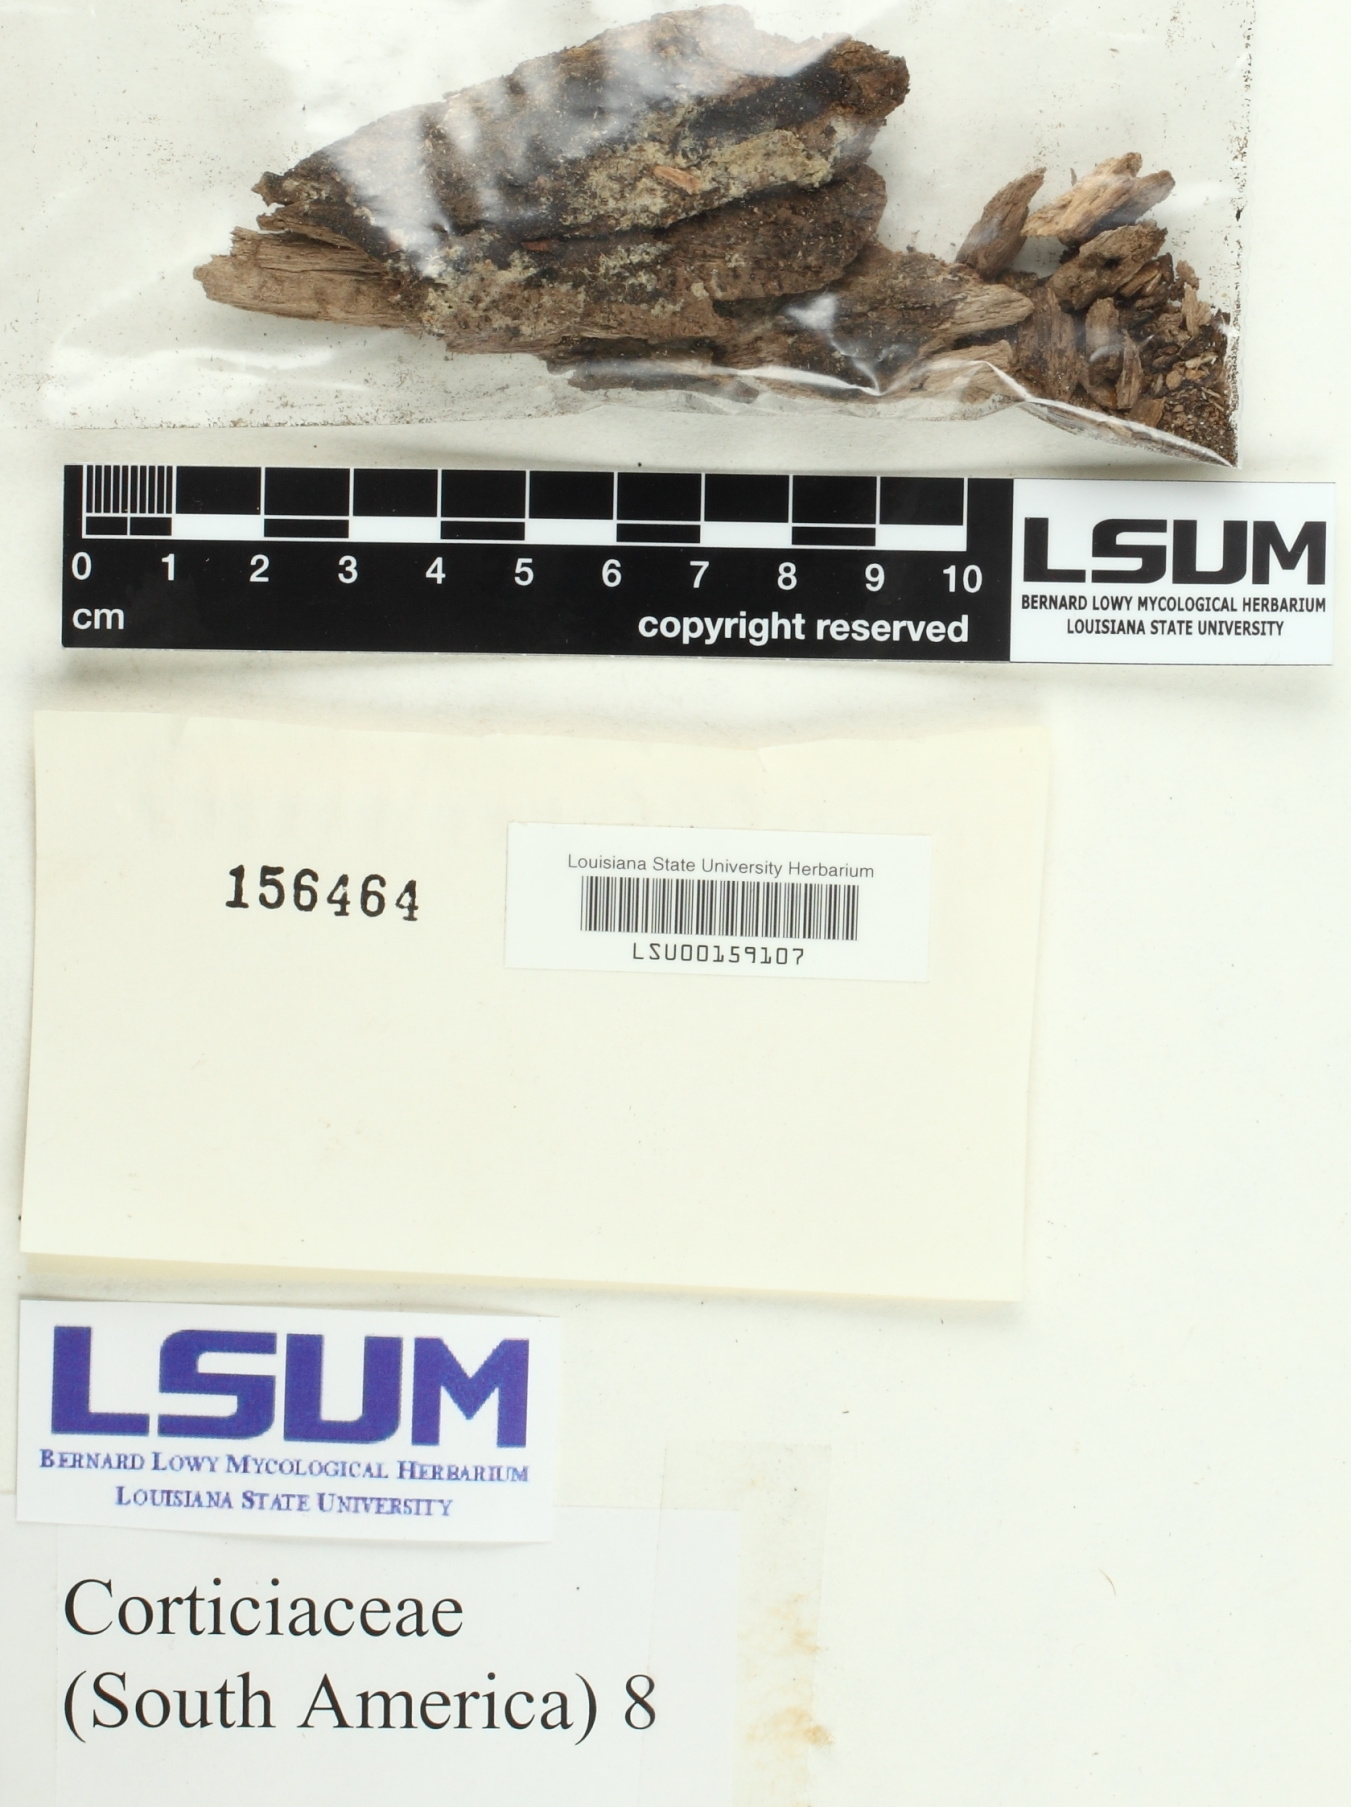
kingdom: Fungi
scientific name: Fungi
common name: Fungi
